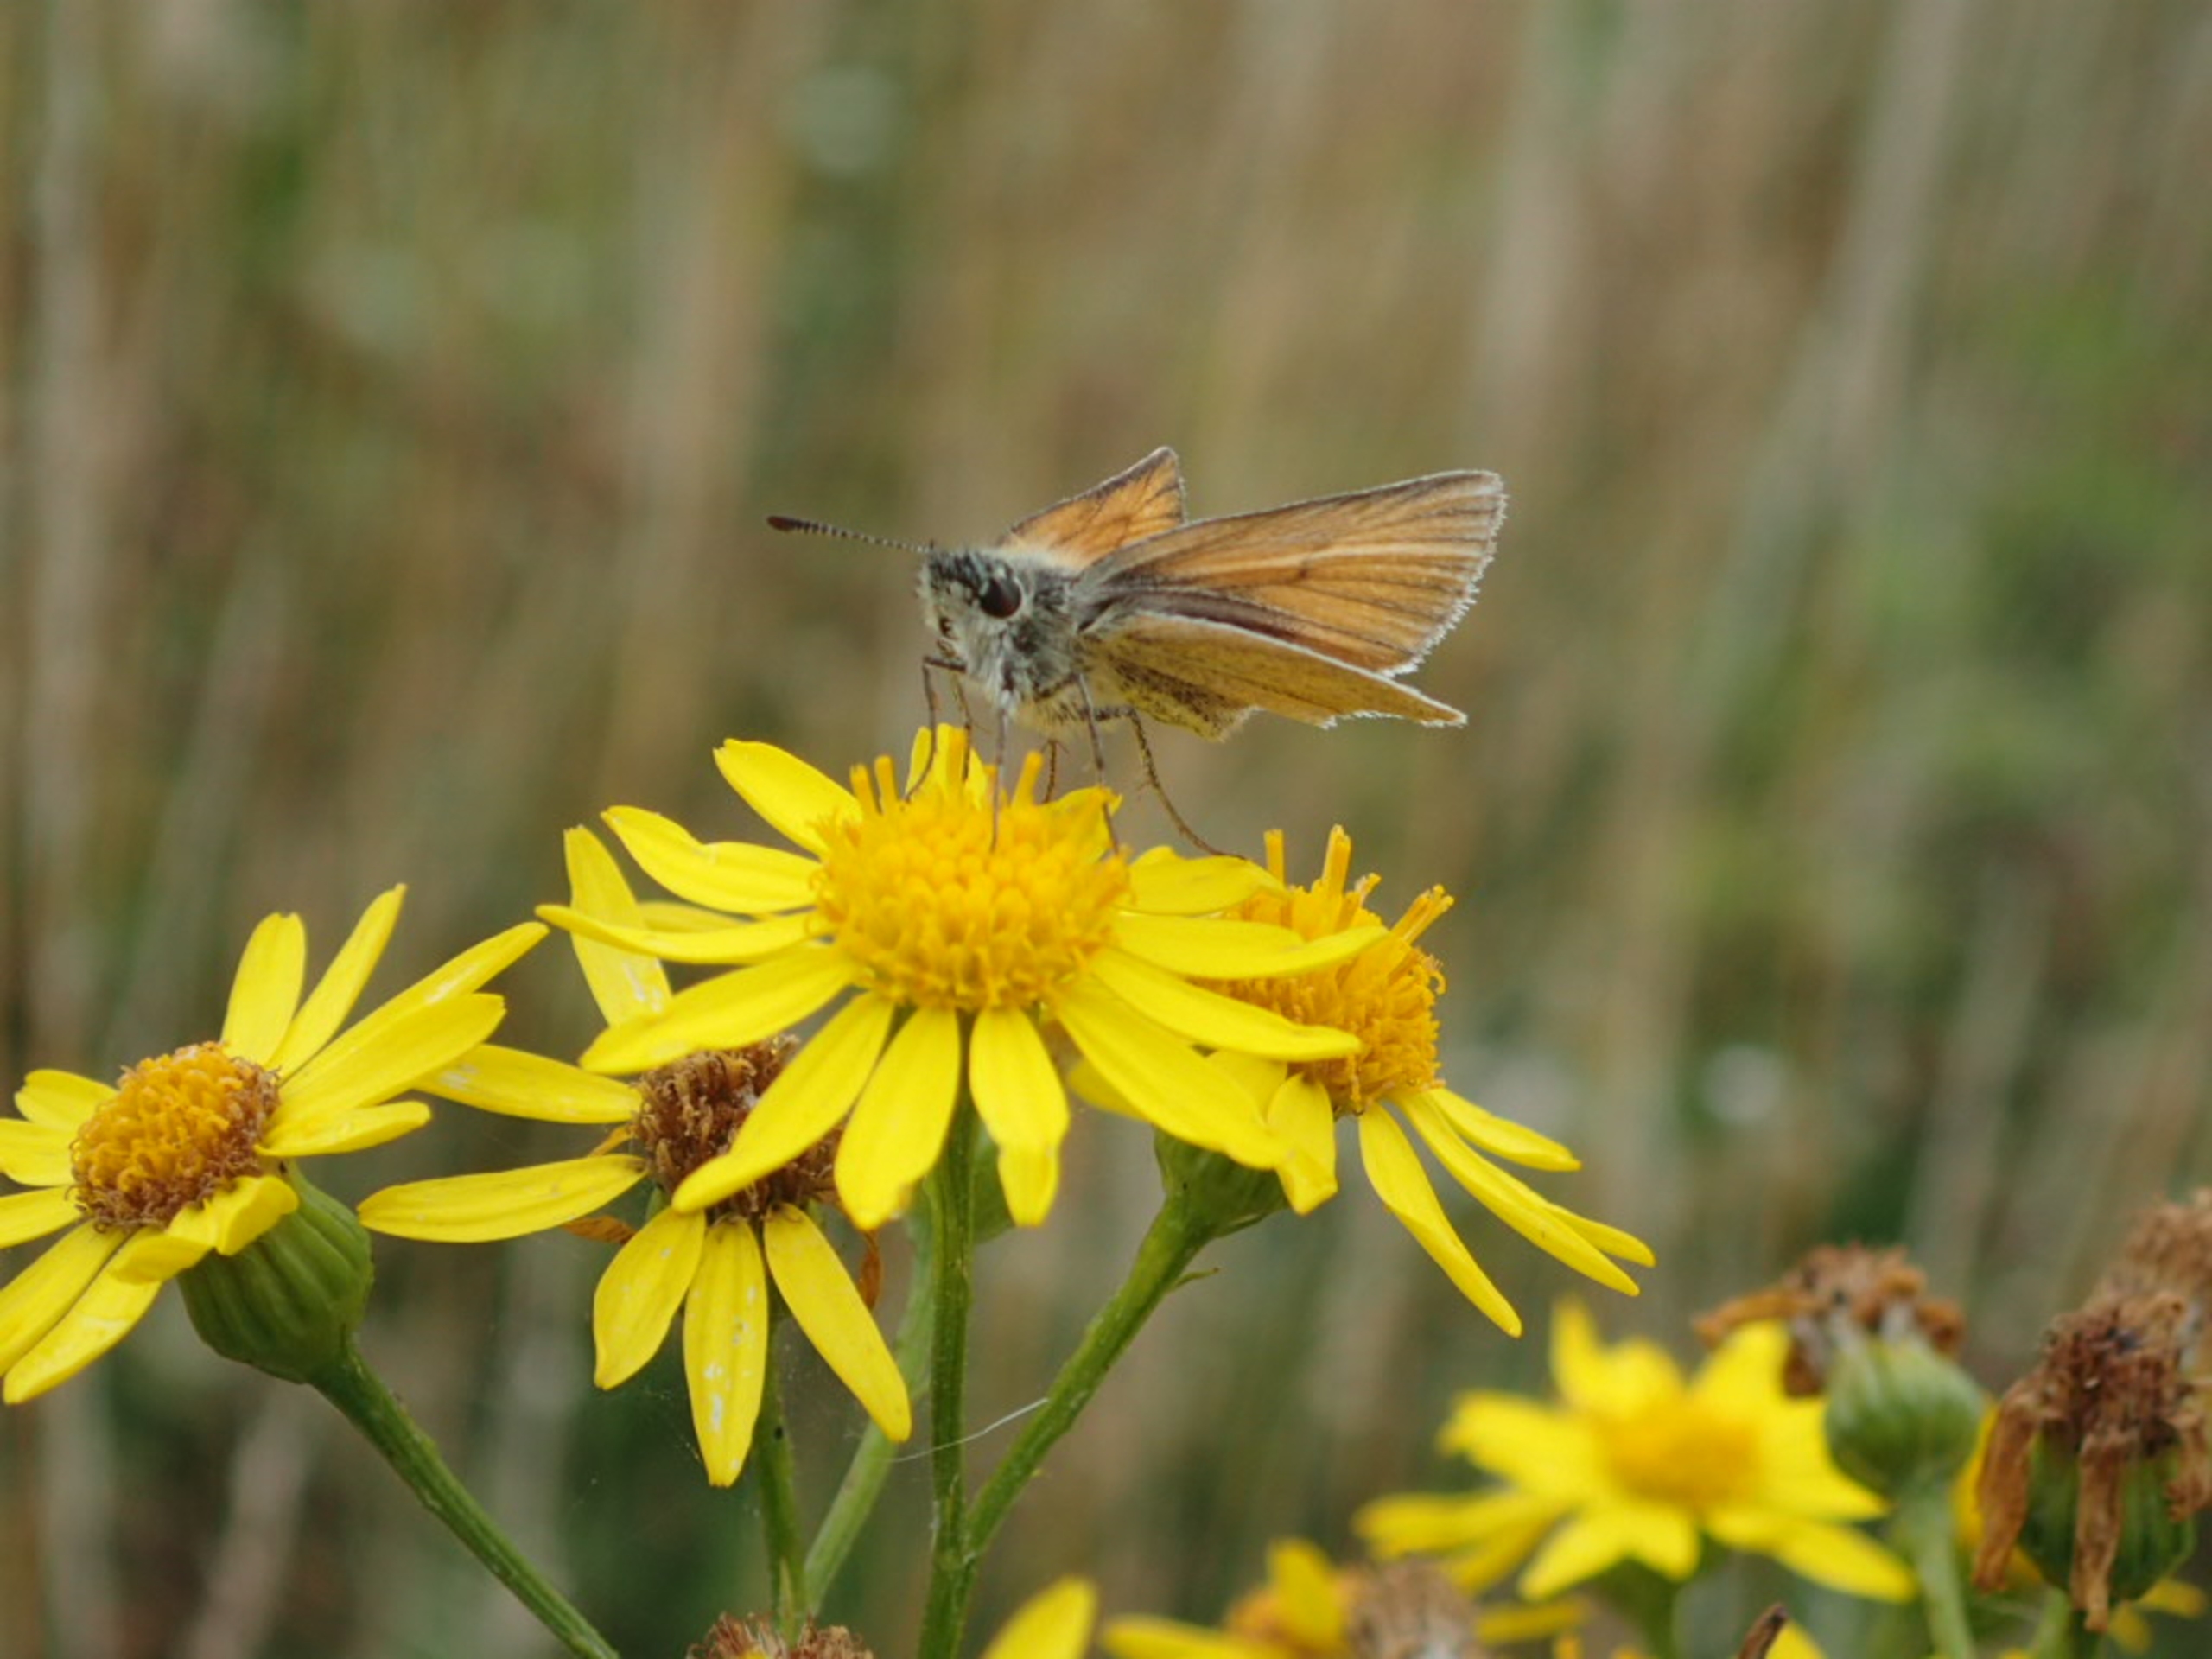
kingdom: Animalia
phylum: Arthropoda
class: Insecta
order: Lepidoptera
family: Hesperiidae
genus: Thymelicus
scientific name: Thymelicus lineola
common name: Stregbredpande
